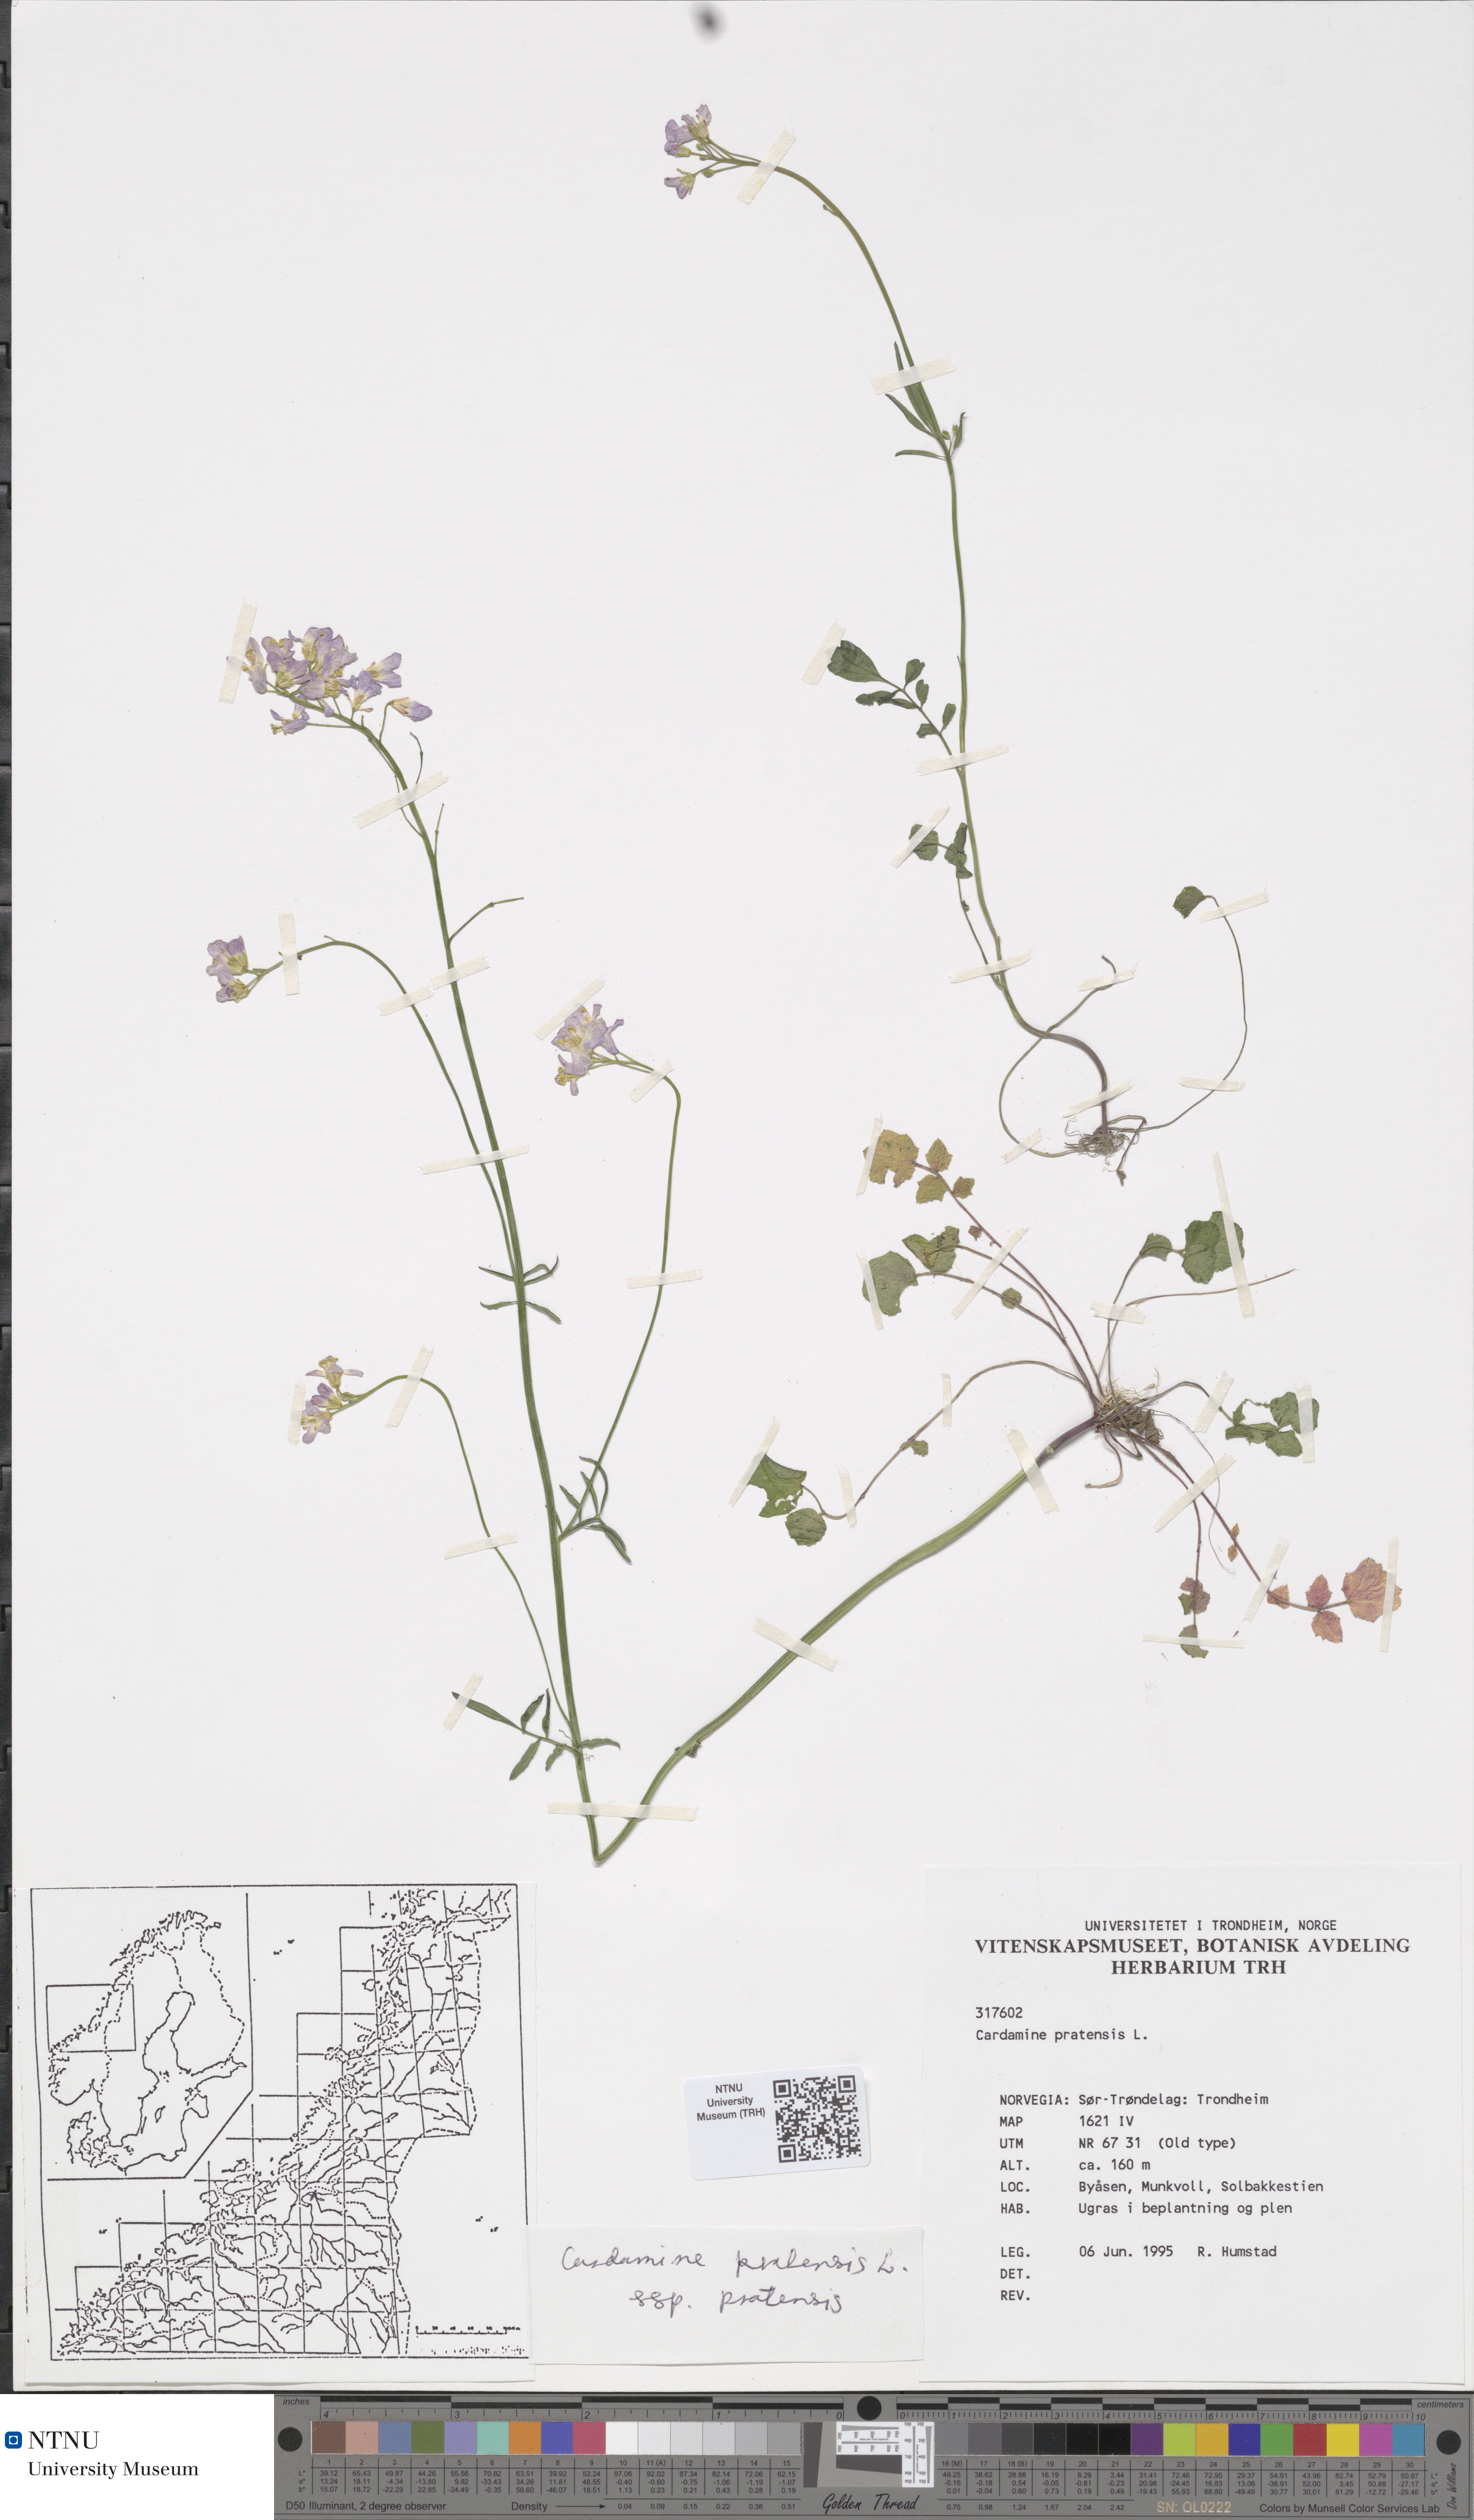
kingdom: Plantae
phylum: Tracheophyta
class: Magnoliopsida
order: Brassicales
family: Brassicaceae
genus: Cardamine
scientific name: Cardamine pratensis
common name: Cuckoo flower
